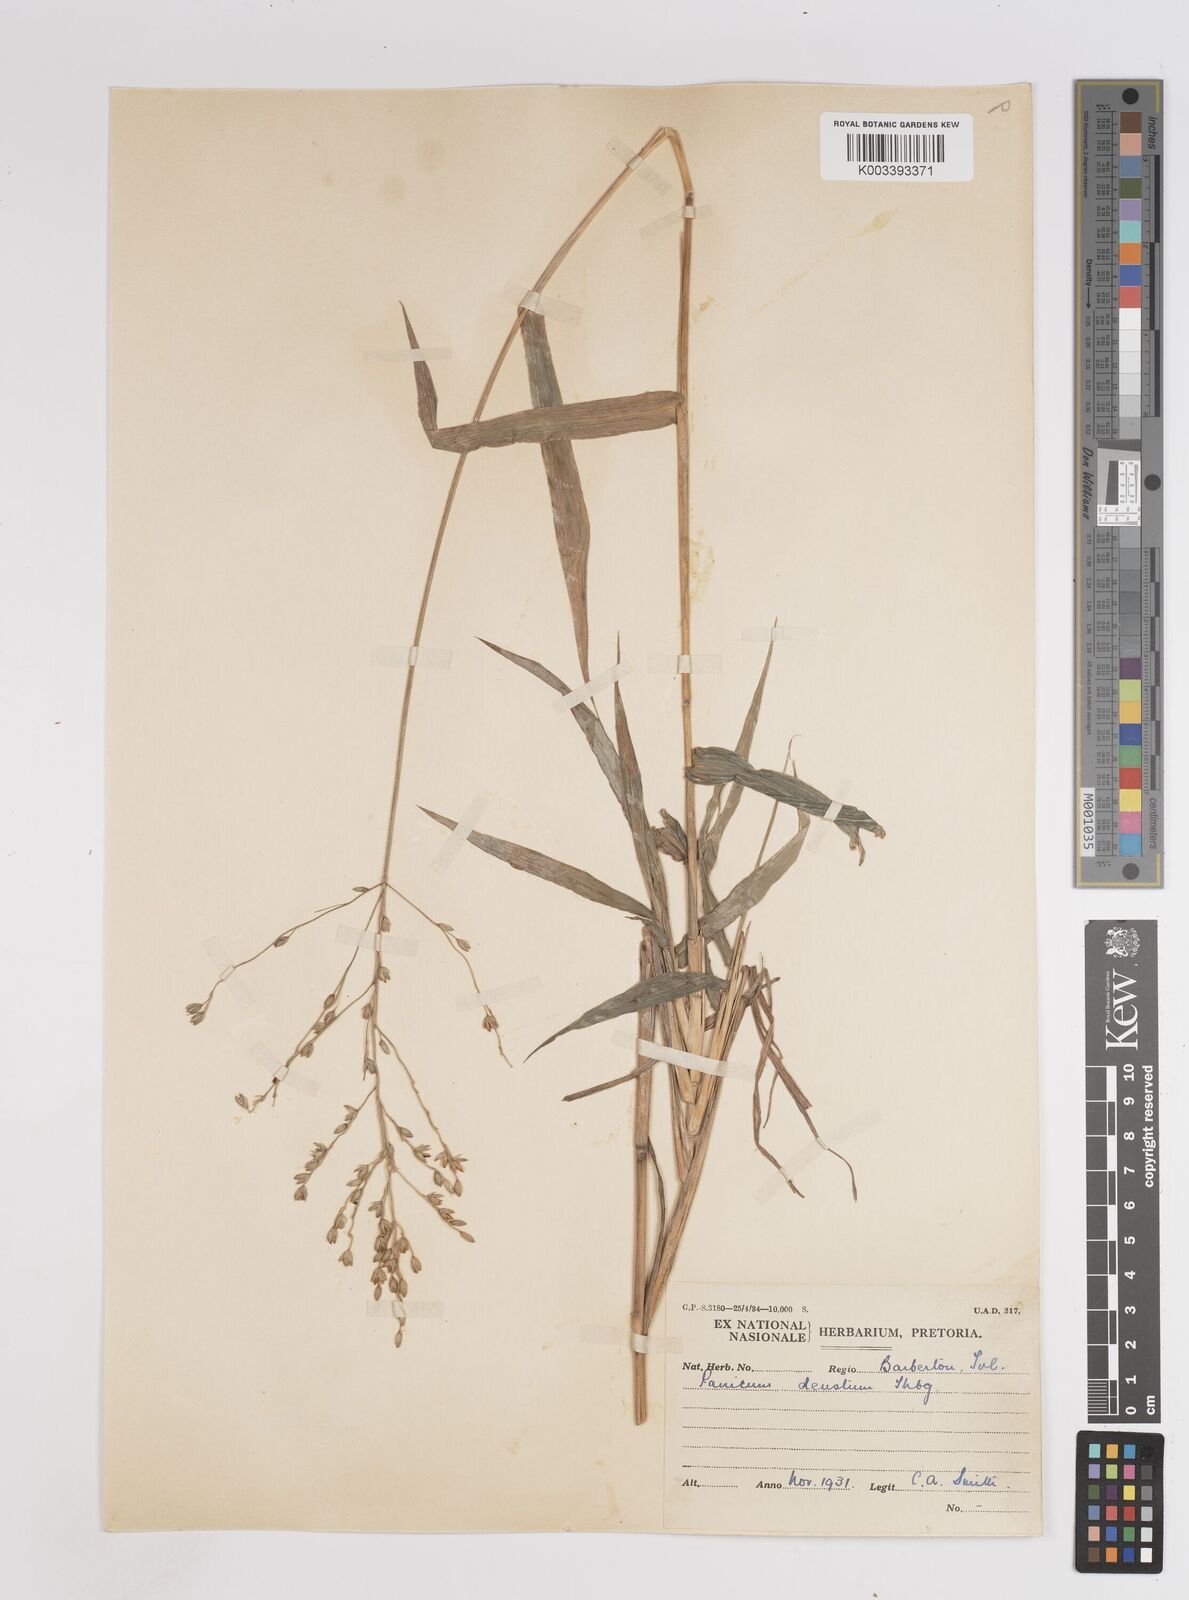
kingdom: Plantae
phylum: Tracheophyta
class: Liliopsida
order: Poales
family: Poaceae
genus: Panicum
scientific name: Panicum deustum
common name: Reed panicum
